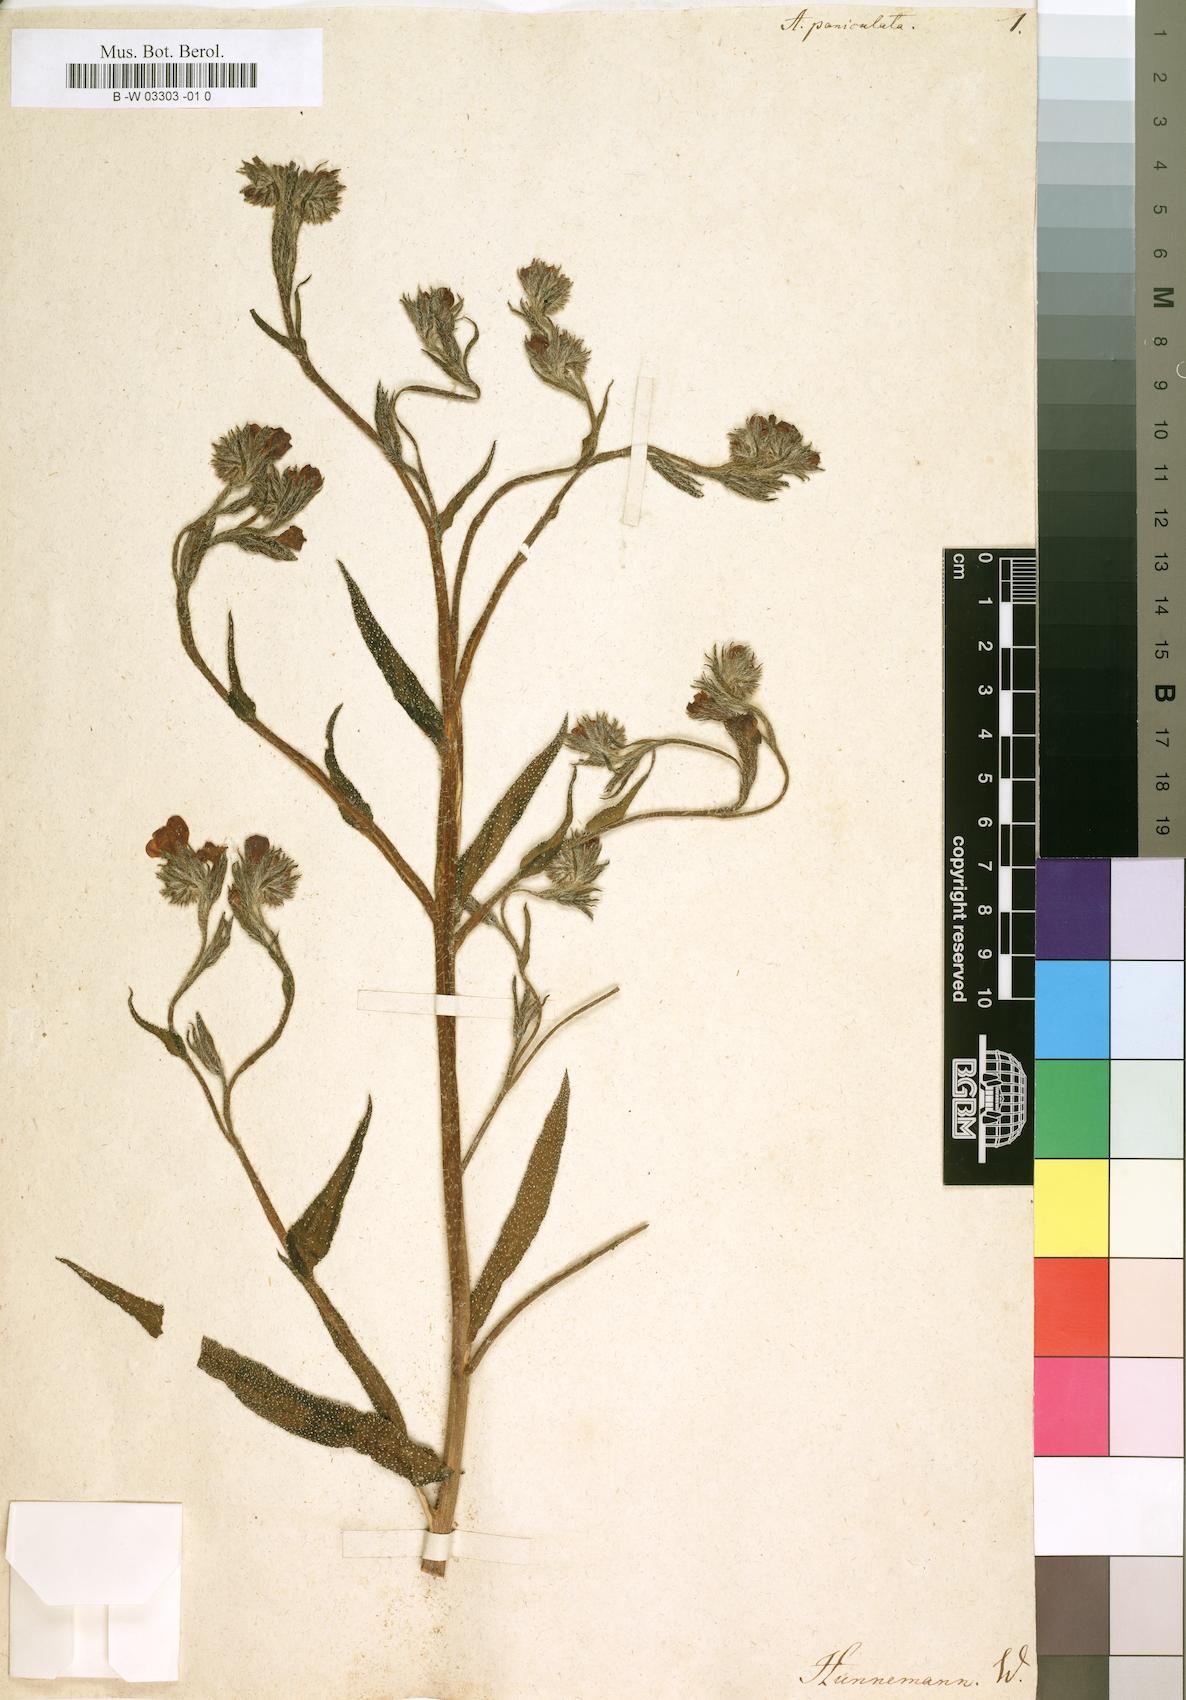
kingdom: Plantae
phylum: Tracheophyta
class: Magnoliopsida
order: Boraginales
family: Boraginaceae
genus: Anchusa
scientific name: Anchusa azurea
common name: Garden anchusa
